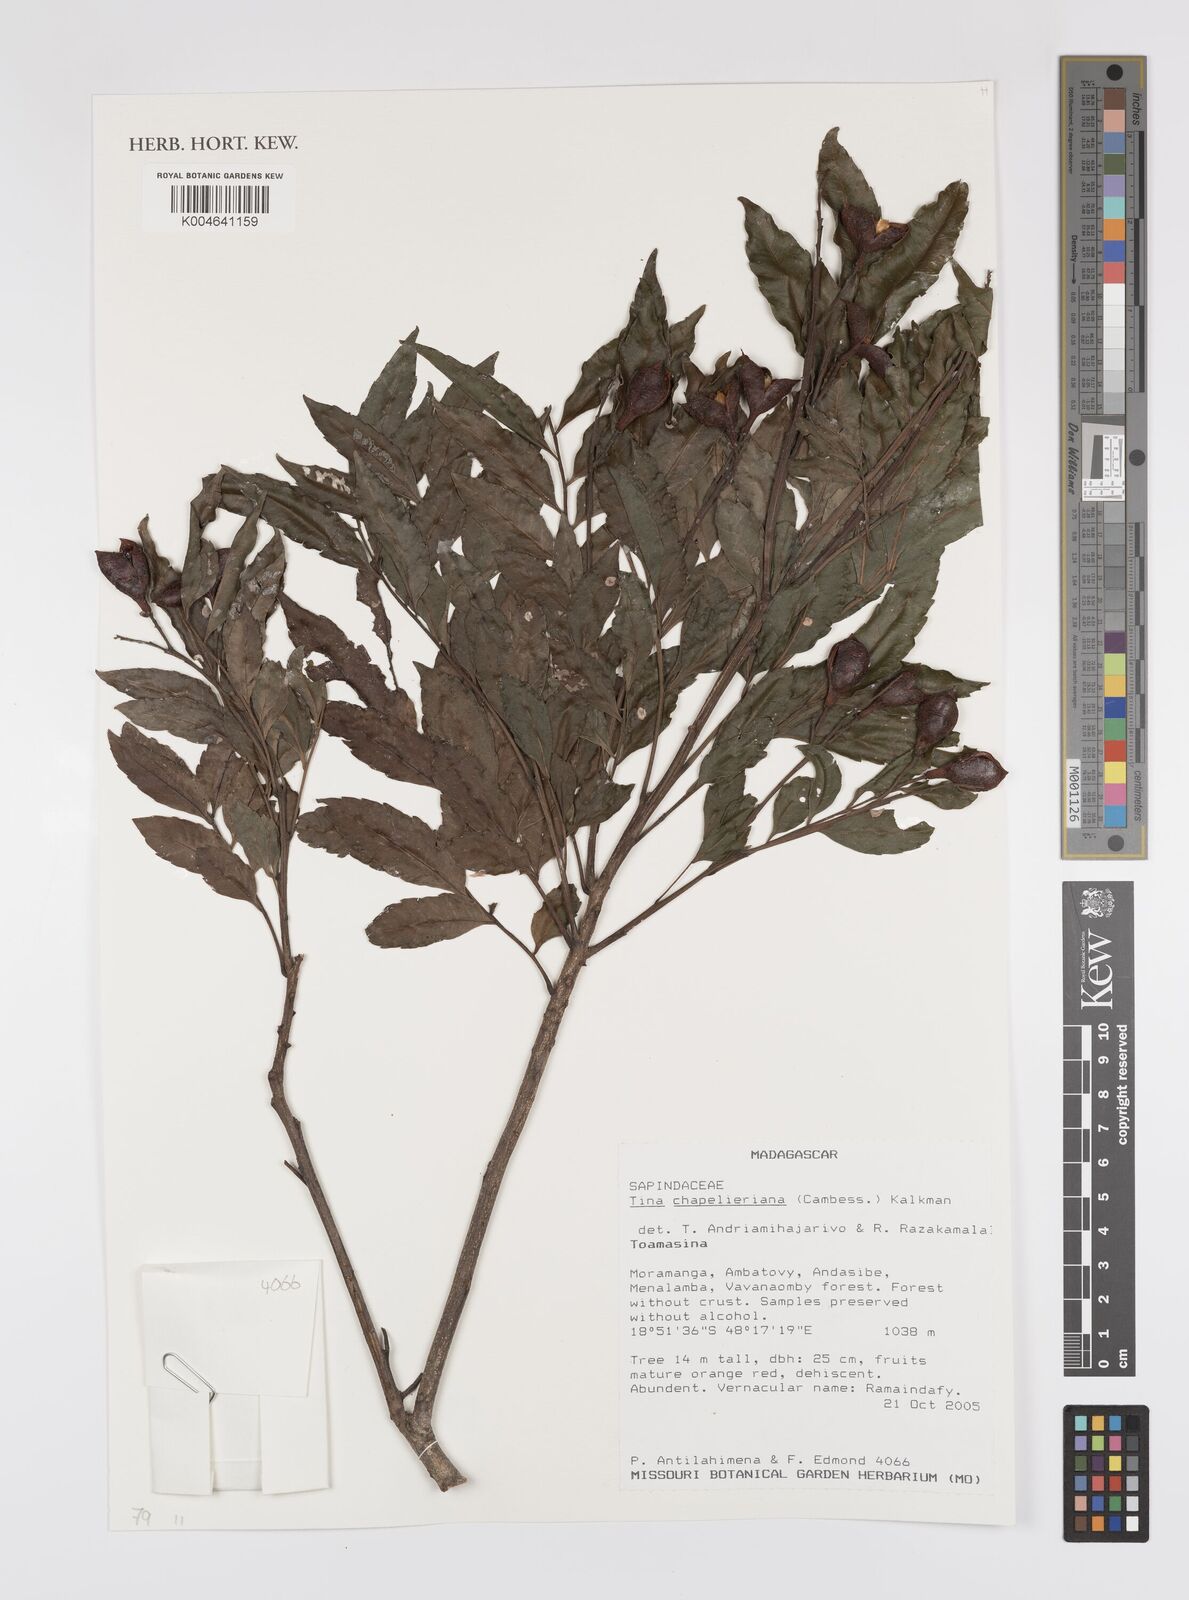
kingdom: Plantae
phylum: Tracheophyta
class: Magnoliopsida
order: Sapindales
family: Sapindaceae
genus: Tina
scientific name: Tina chapelieriana
